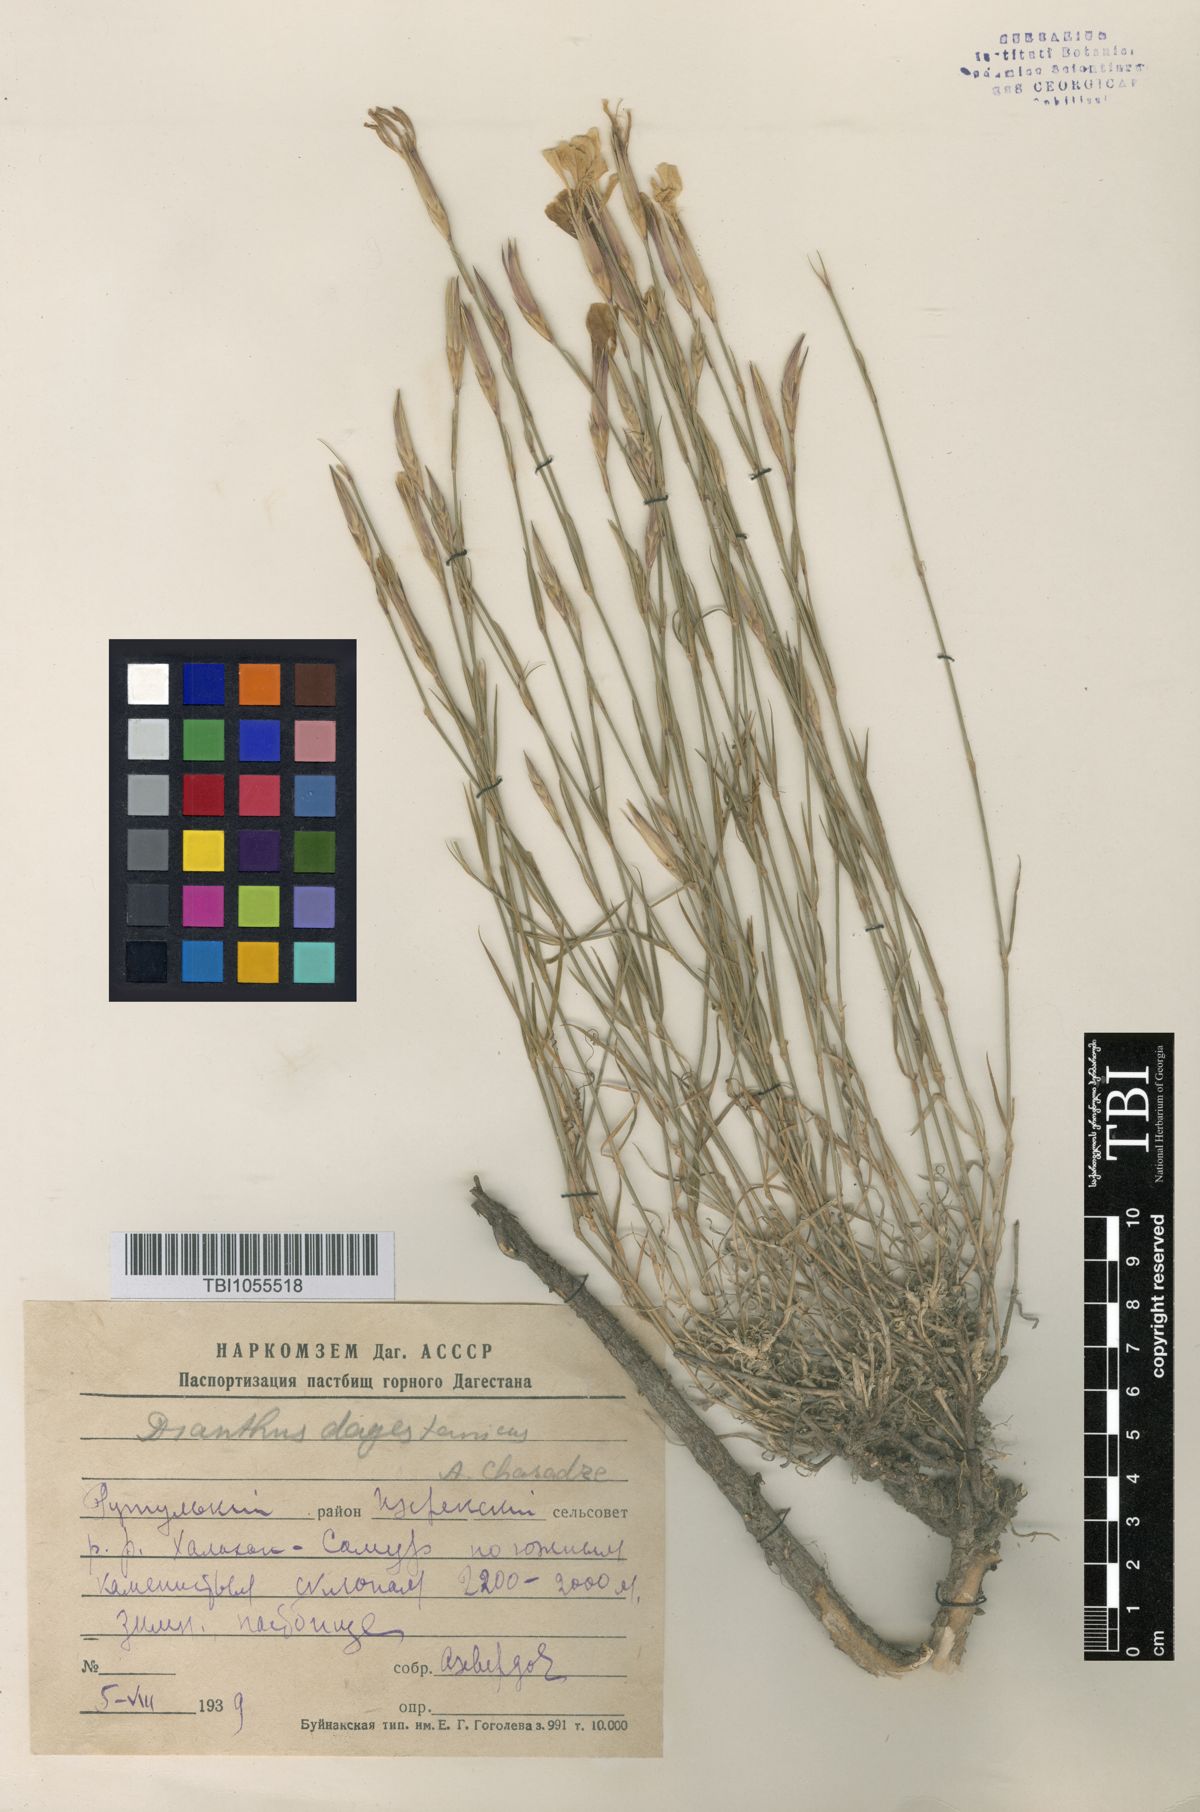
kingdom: Plantae
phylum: Tracheophyta
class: Magnoliopsida
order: Caryophyllales
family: Caryophyllaceae
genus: Dianthus
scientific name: Dianthus daghestanicus
